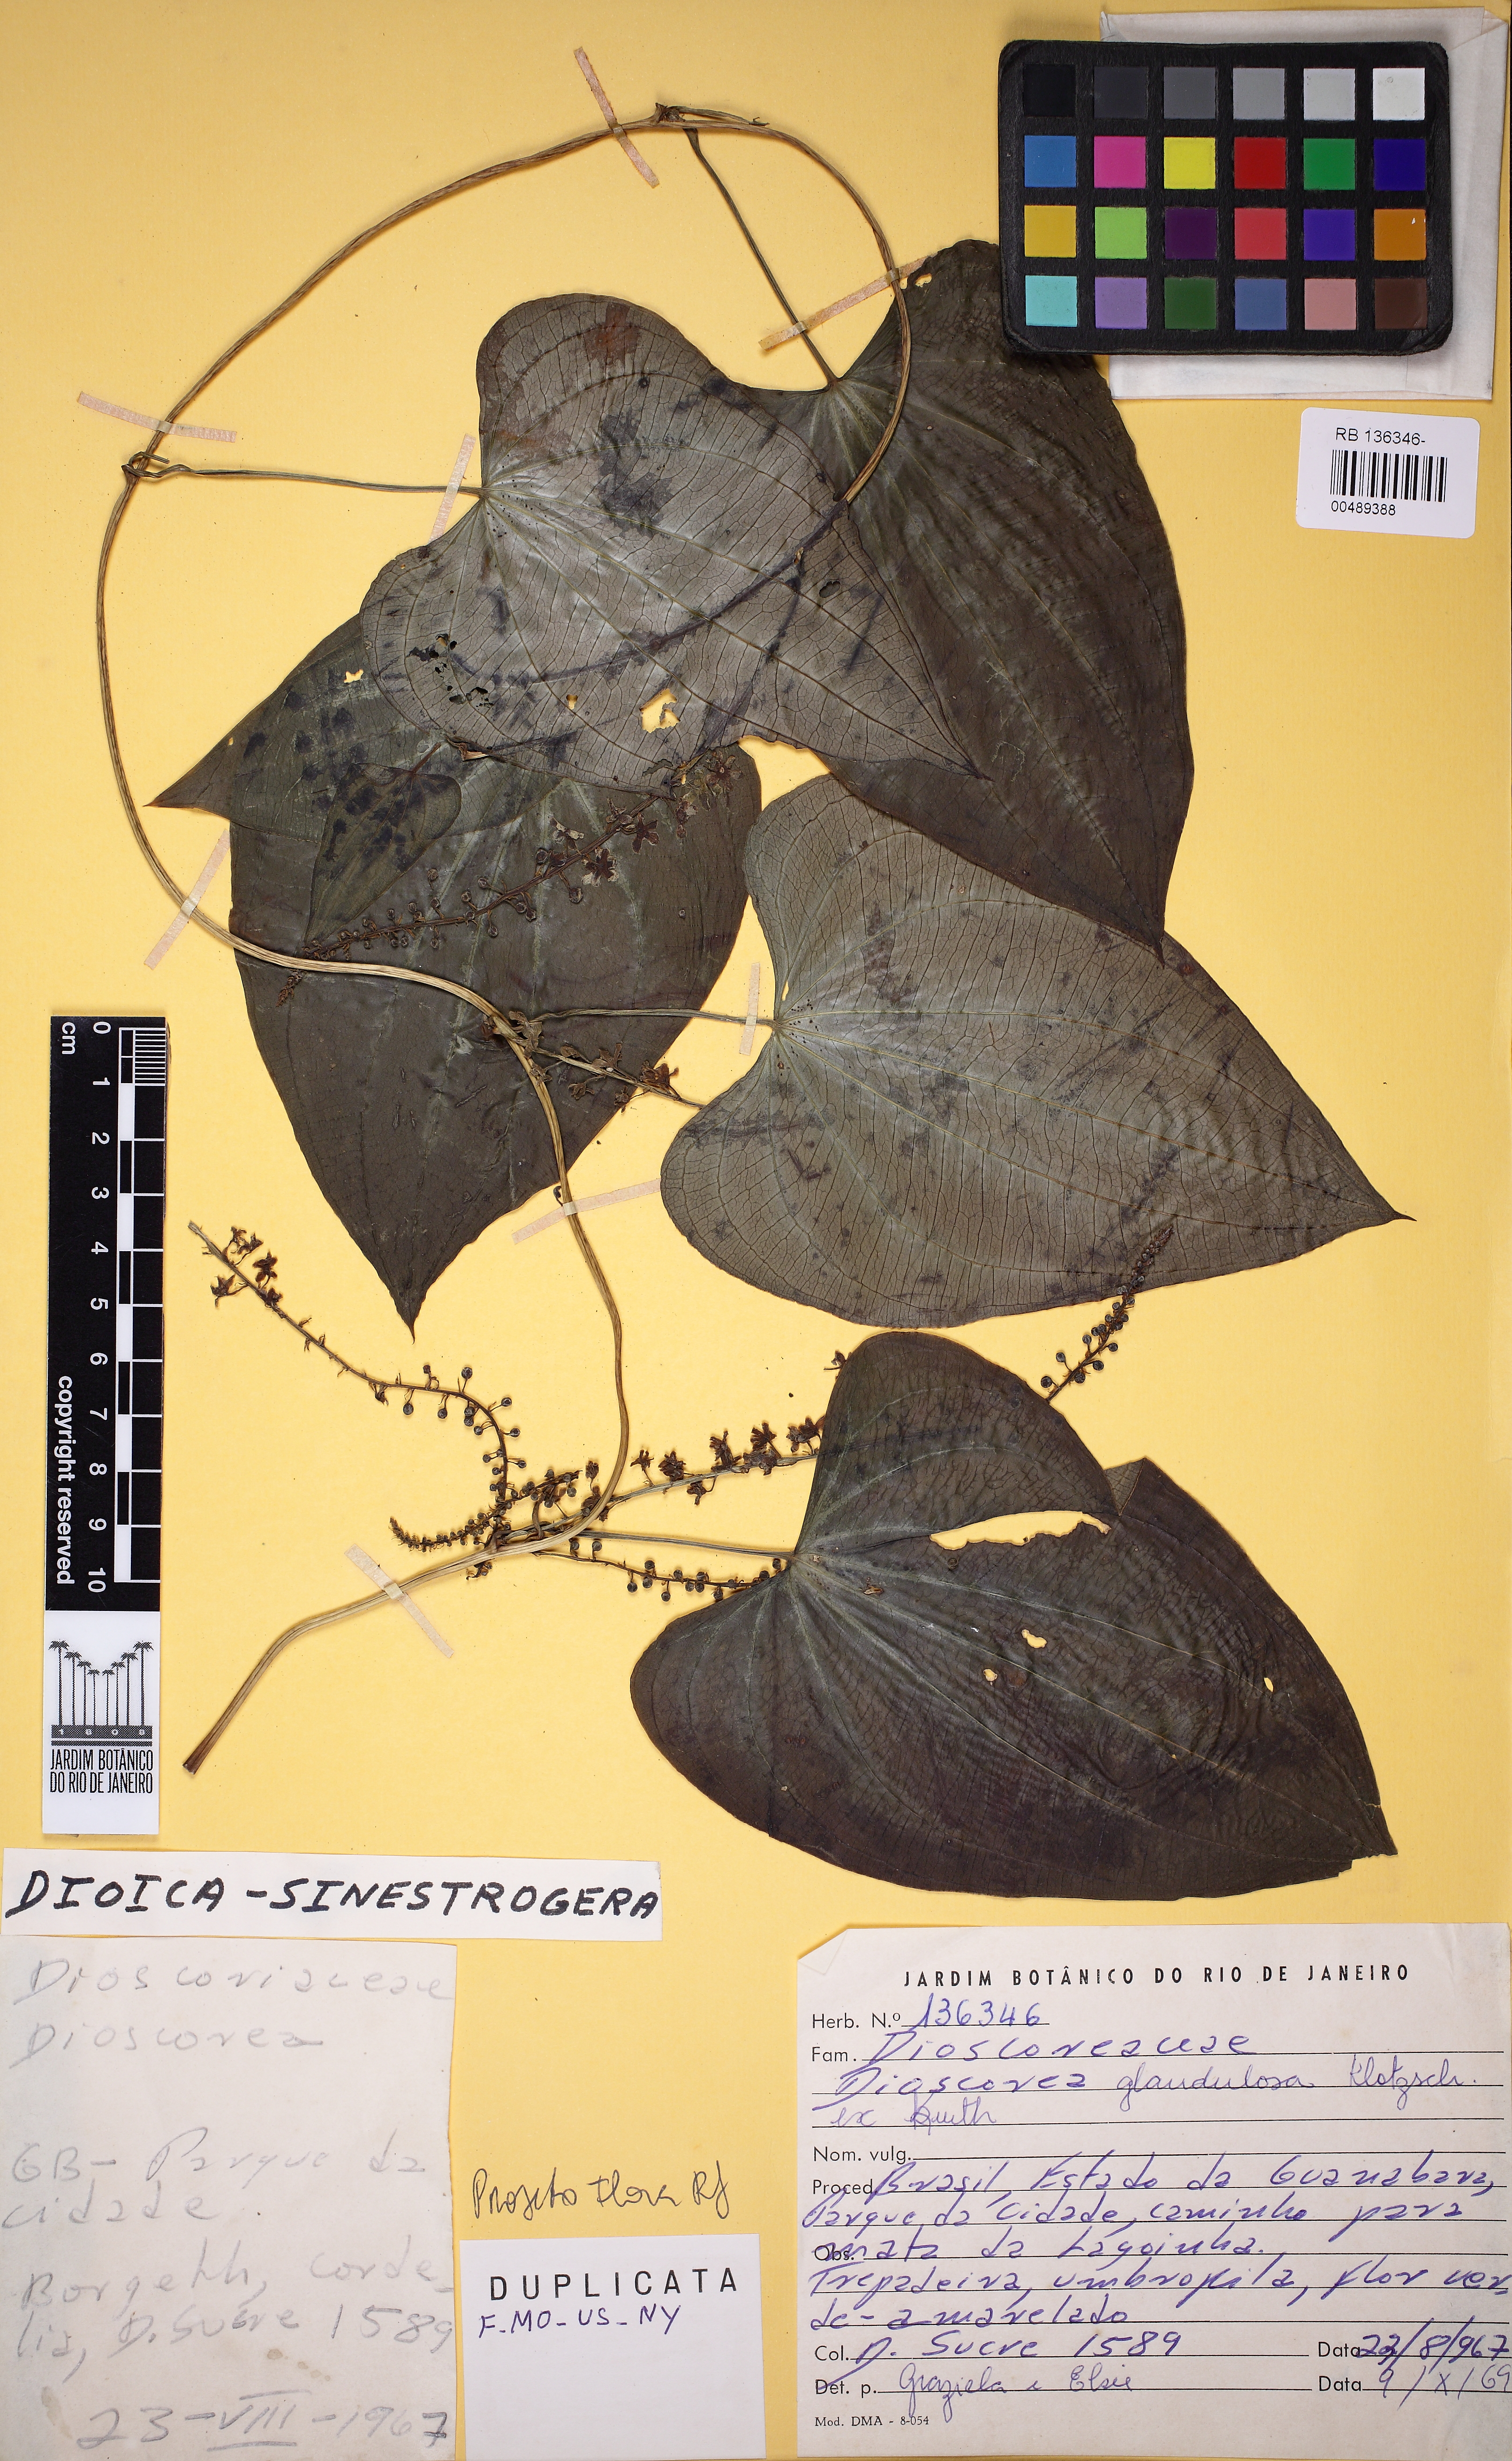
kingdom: Plantae
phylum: Tracheophyta
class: Liliopsida
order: Dioscoreales
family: Dioscoreaceae
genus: Dioscorea
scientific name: Dioscorea piperifolia
